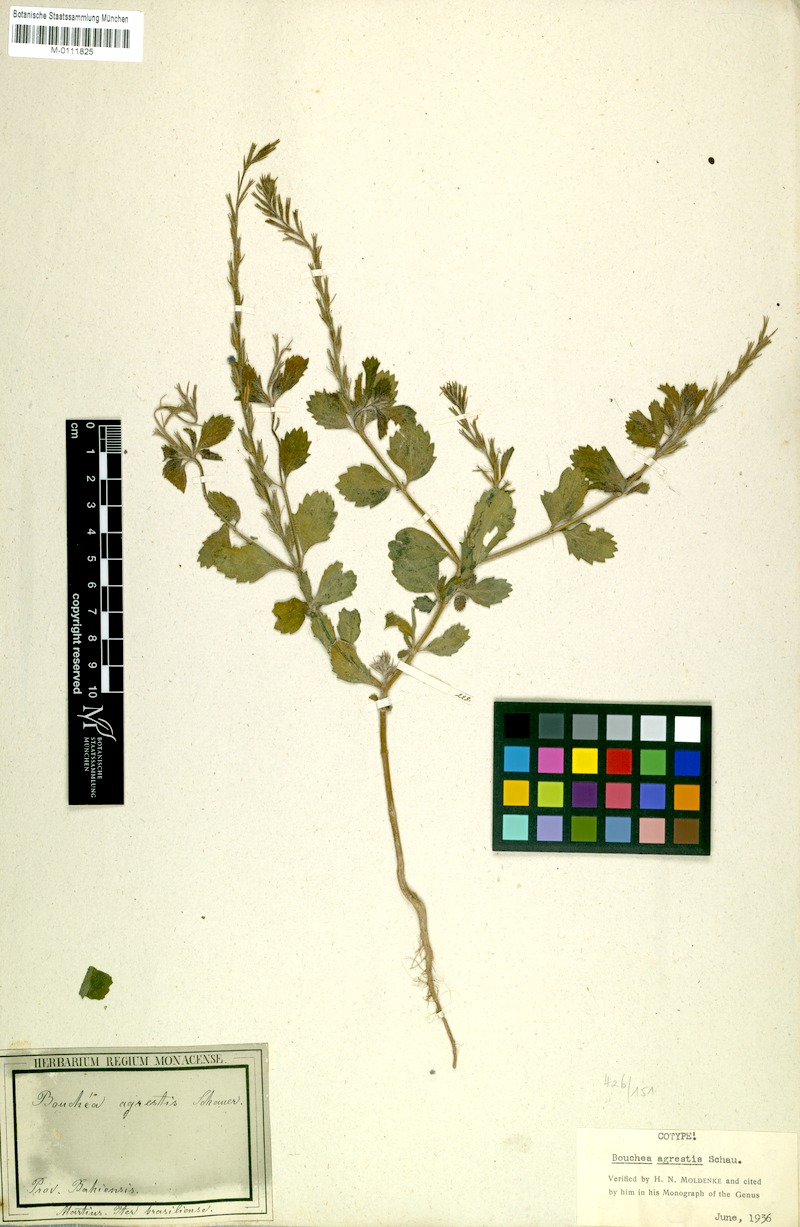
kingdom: Plantae
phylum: Tracheophyta
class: Magnoliopsida
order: Lamiales
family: Verbenaceae
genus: Bouchea
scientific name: Bouchea agrestis
